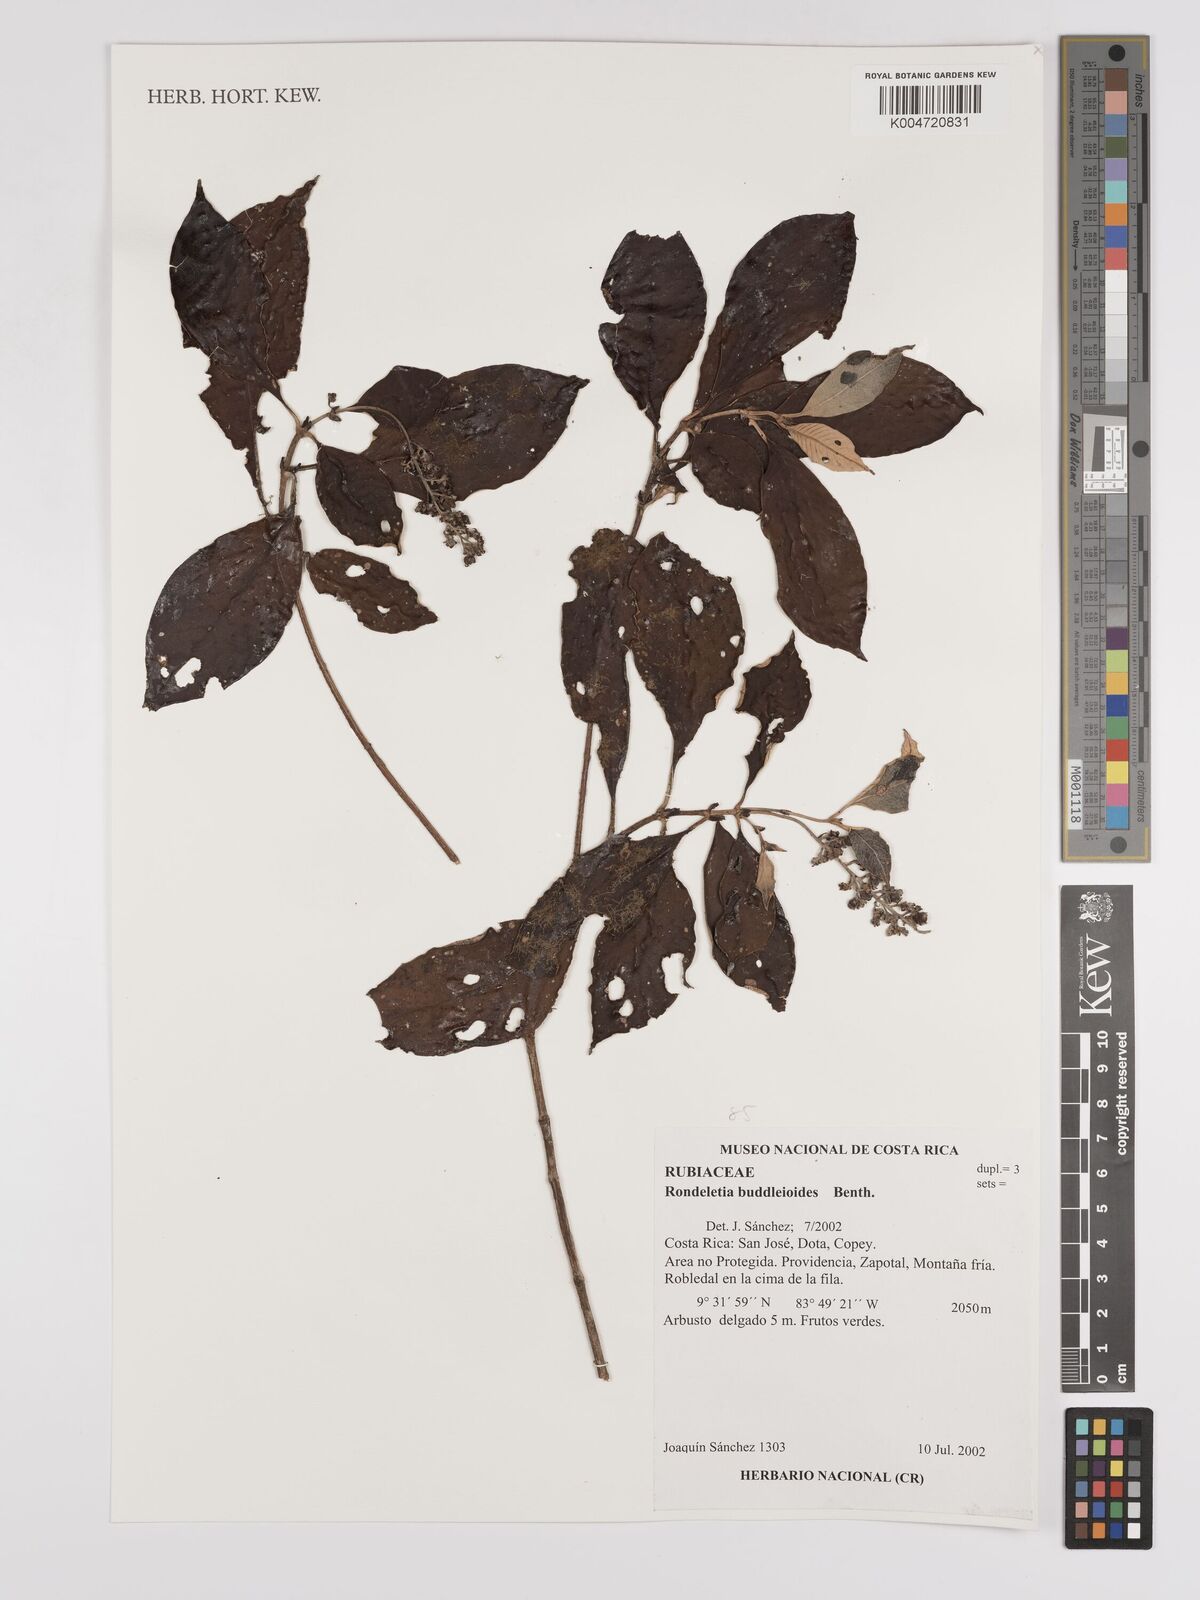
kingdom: Plantae
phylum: Tracheophyta
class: Magnoliopsida
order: Gentianales
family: Rubiaceae
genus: Arachnothryx
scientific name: Arachnothryx buddleioides
